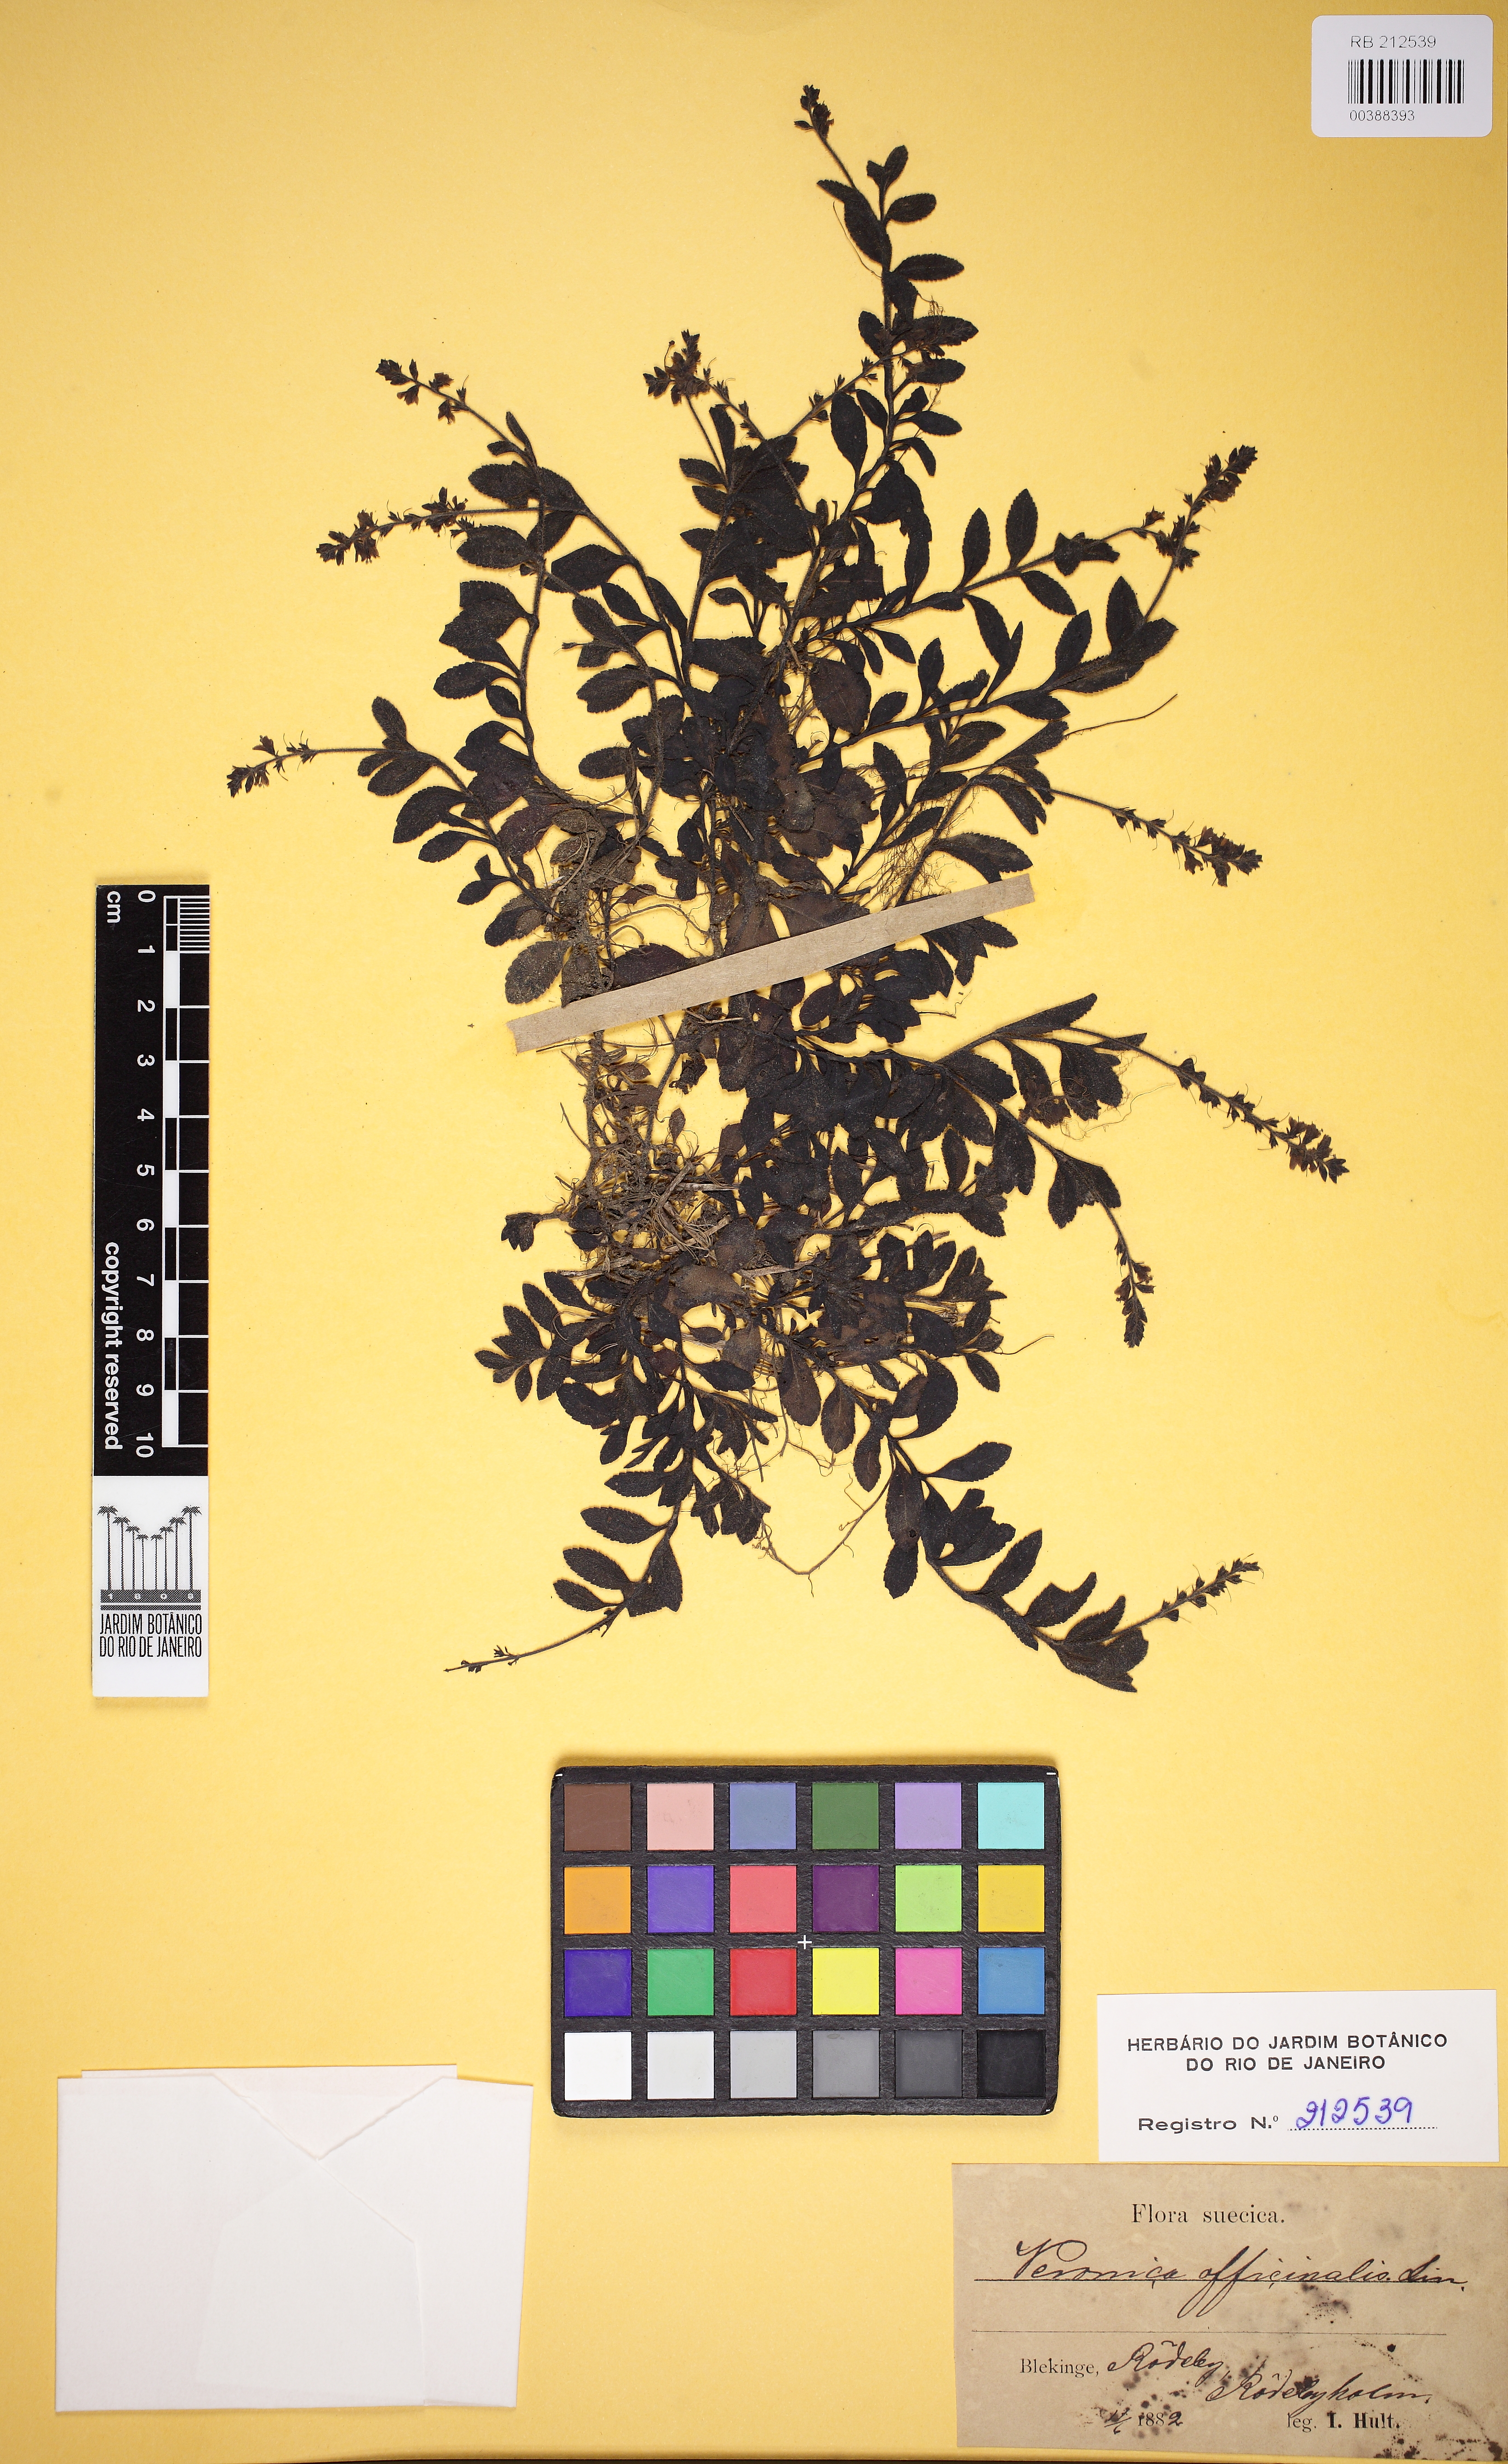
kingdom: Plantae
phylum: Tracheophyta
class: Magnoliopsida
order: Lamiales
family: Plantaginaceae
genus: Veronica
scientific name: Veronica officinalis
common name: Common speedwell
